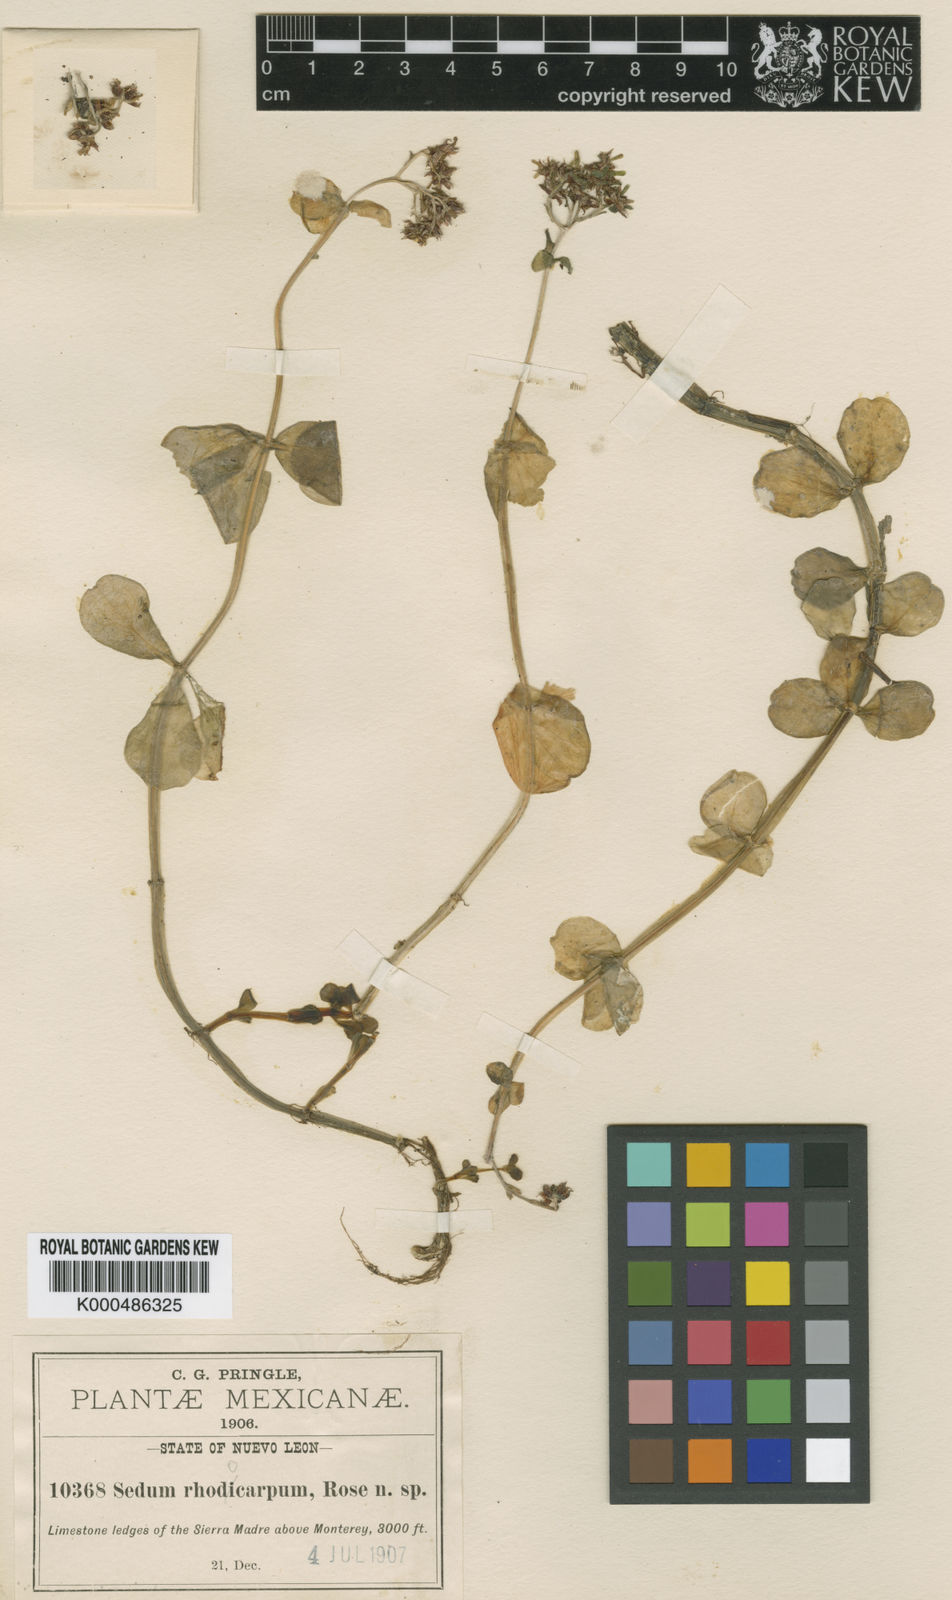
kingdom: Plantae
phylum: Tracheophyta
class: Magnoliopsida
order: Saxifragales
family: Crassulaceae
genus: Sedum
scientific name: Sedum
